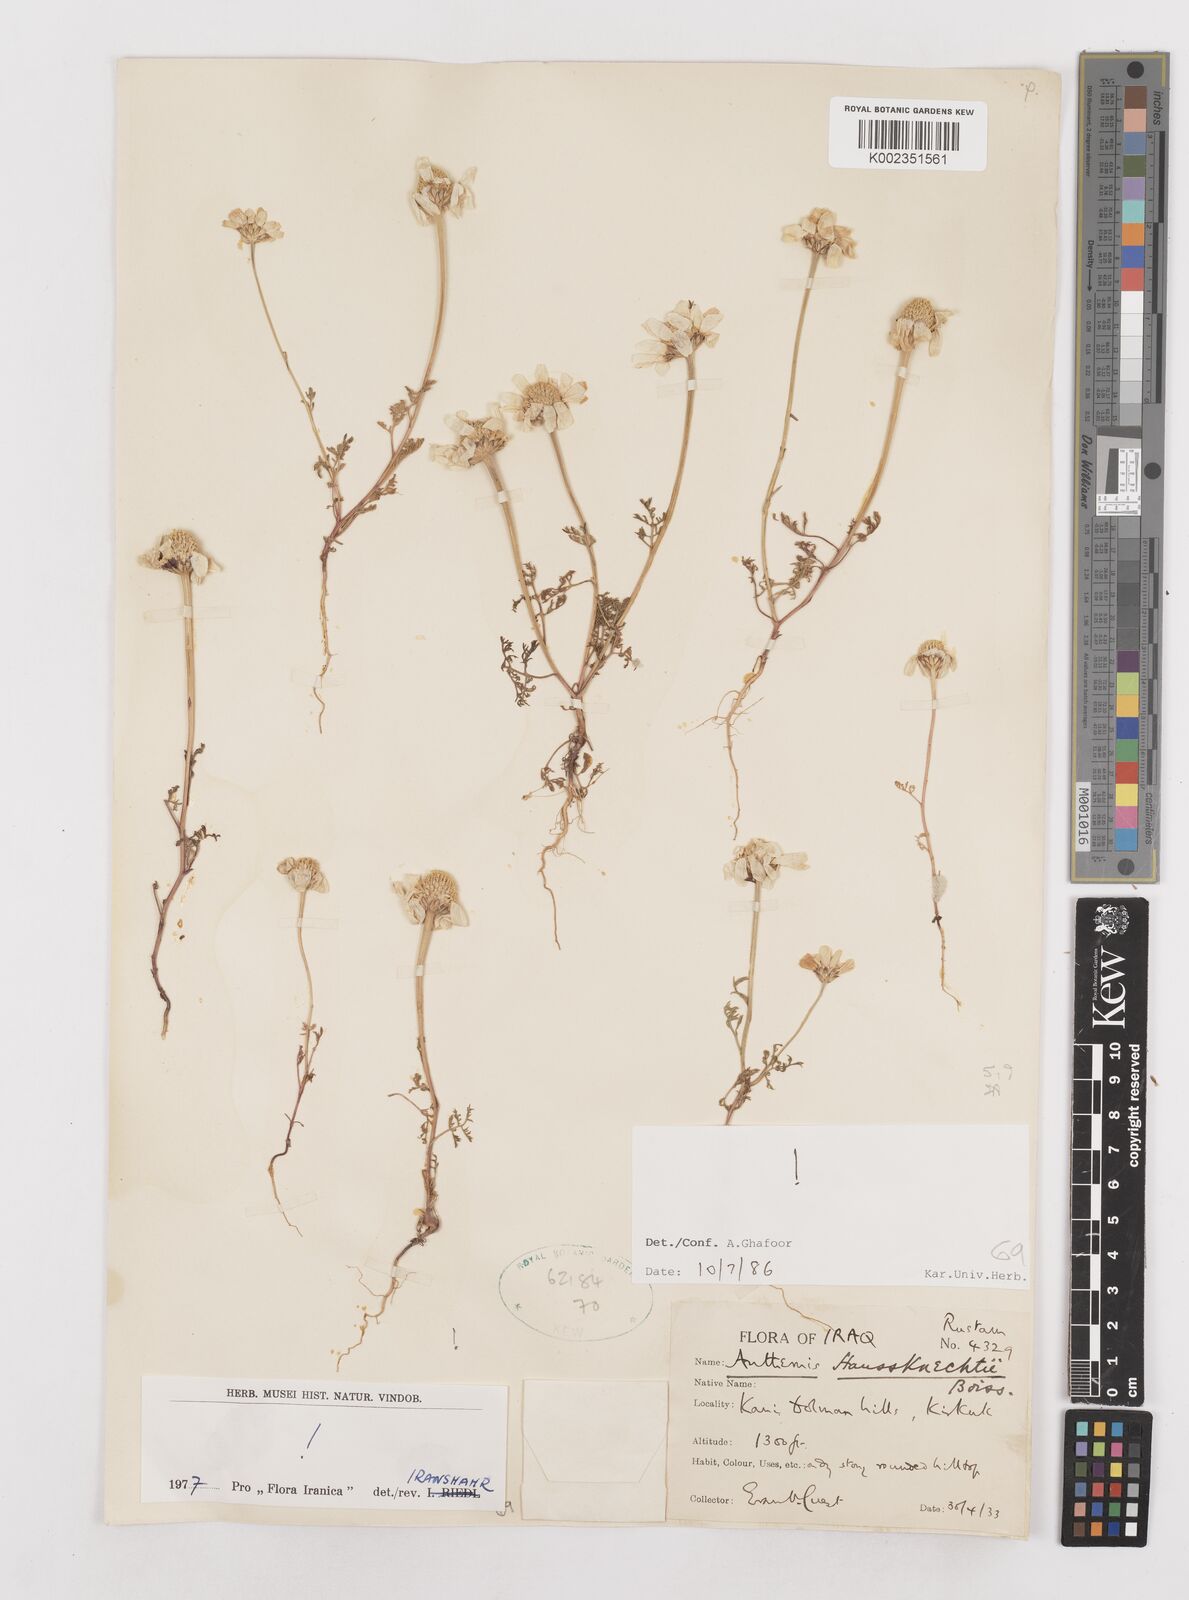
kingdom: Plantae
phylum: Tracheophyta
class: Magnoliopsida
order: Asterales
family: Asteraceae
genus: Anthemis
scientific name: Anthemis haussknechtii
